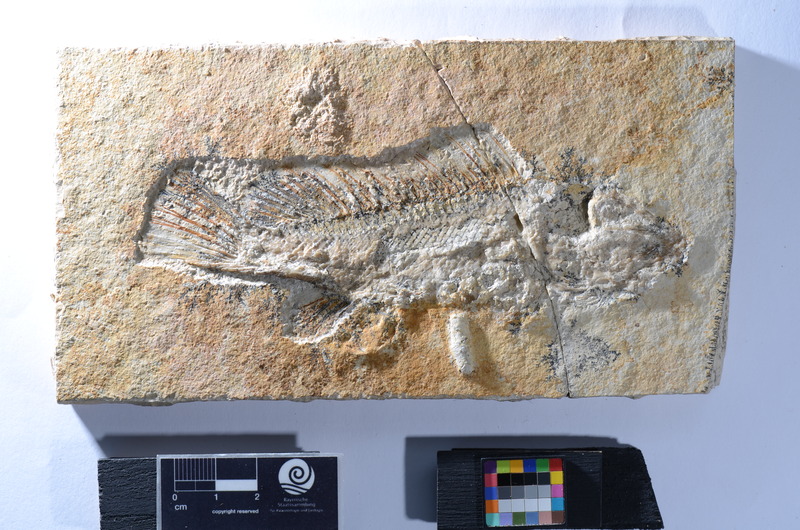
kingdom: Animalia
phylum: Chordata
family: Macrosemiidae
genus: Macrosemius
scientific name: Macrosemius
